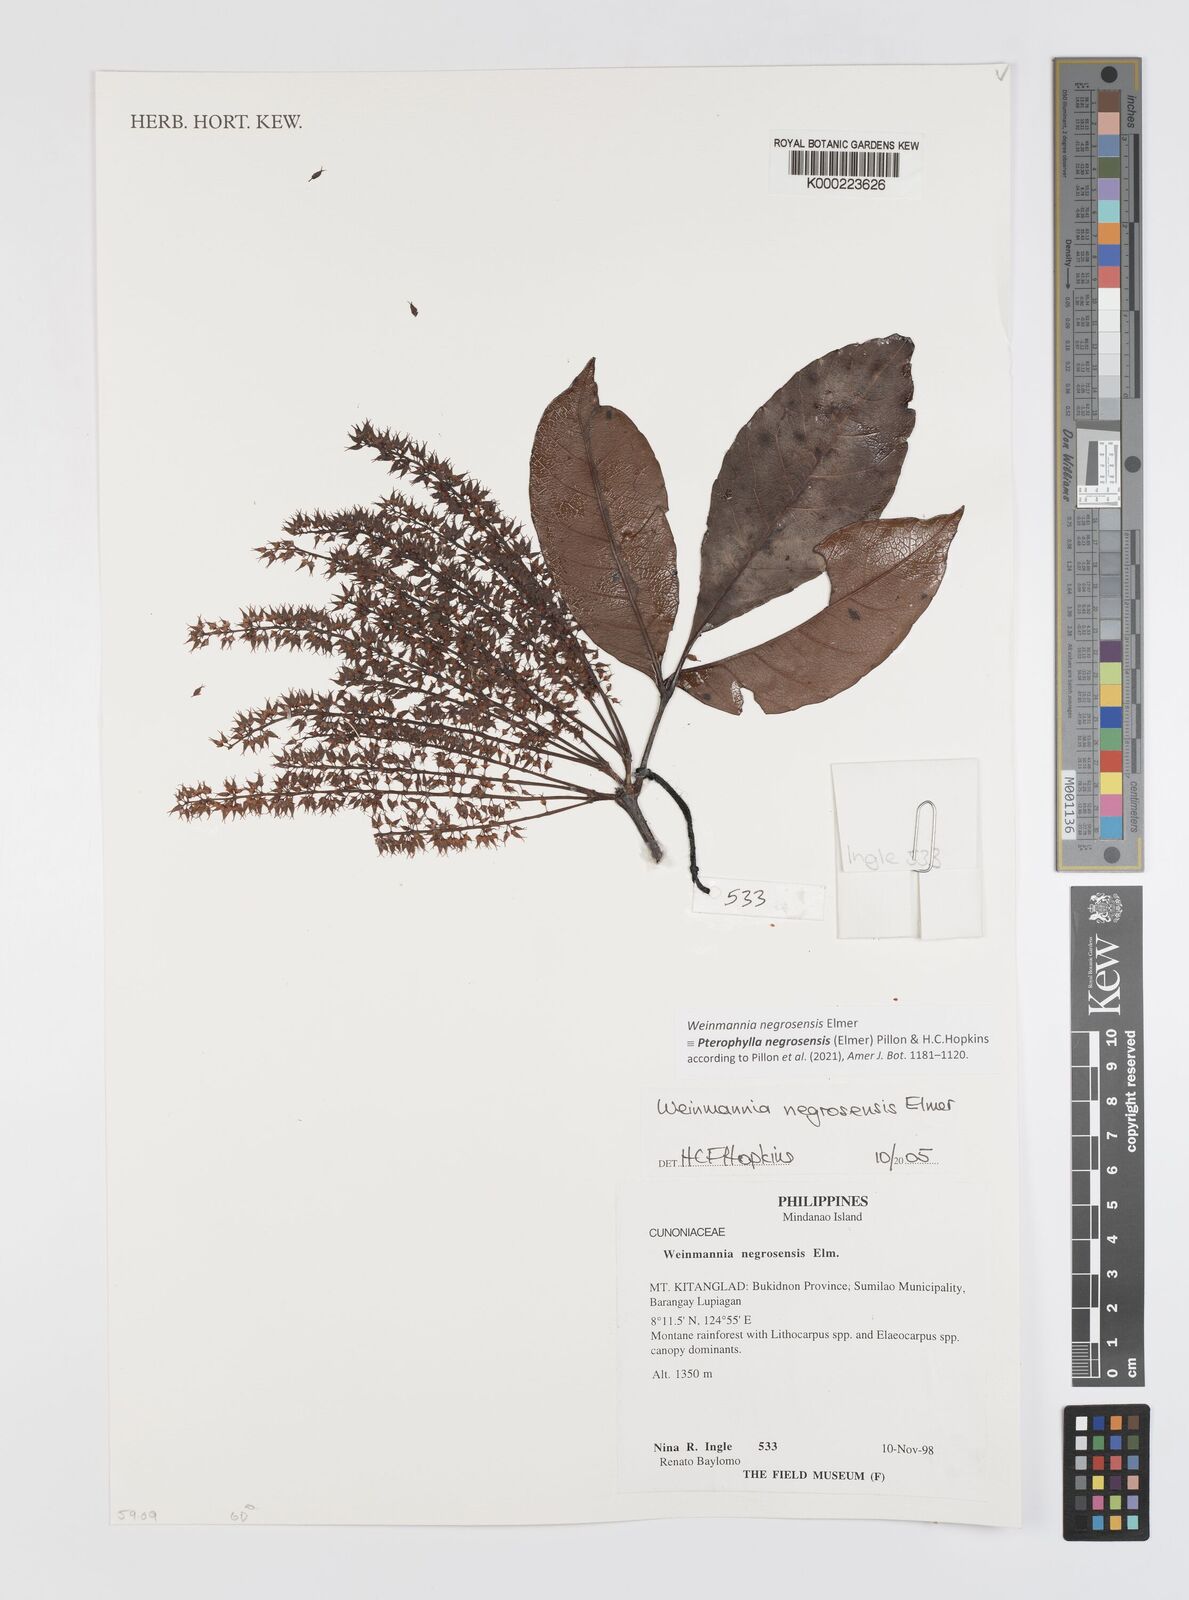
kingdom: Plantae
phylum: Tracheophyta
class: Magnoliopsida
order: Oxalidales
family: Cunoniaceae
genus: Pterophylla
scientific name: Pterophylla negrosensis
